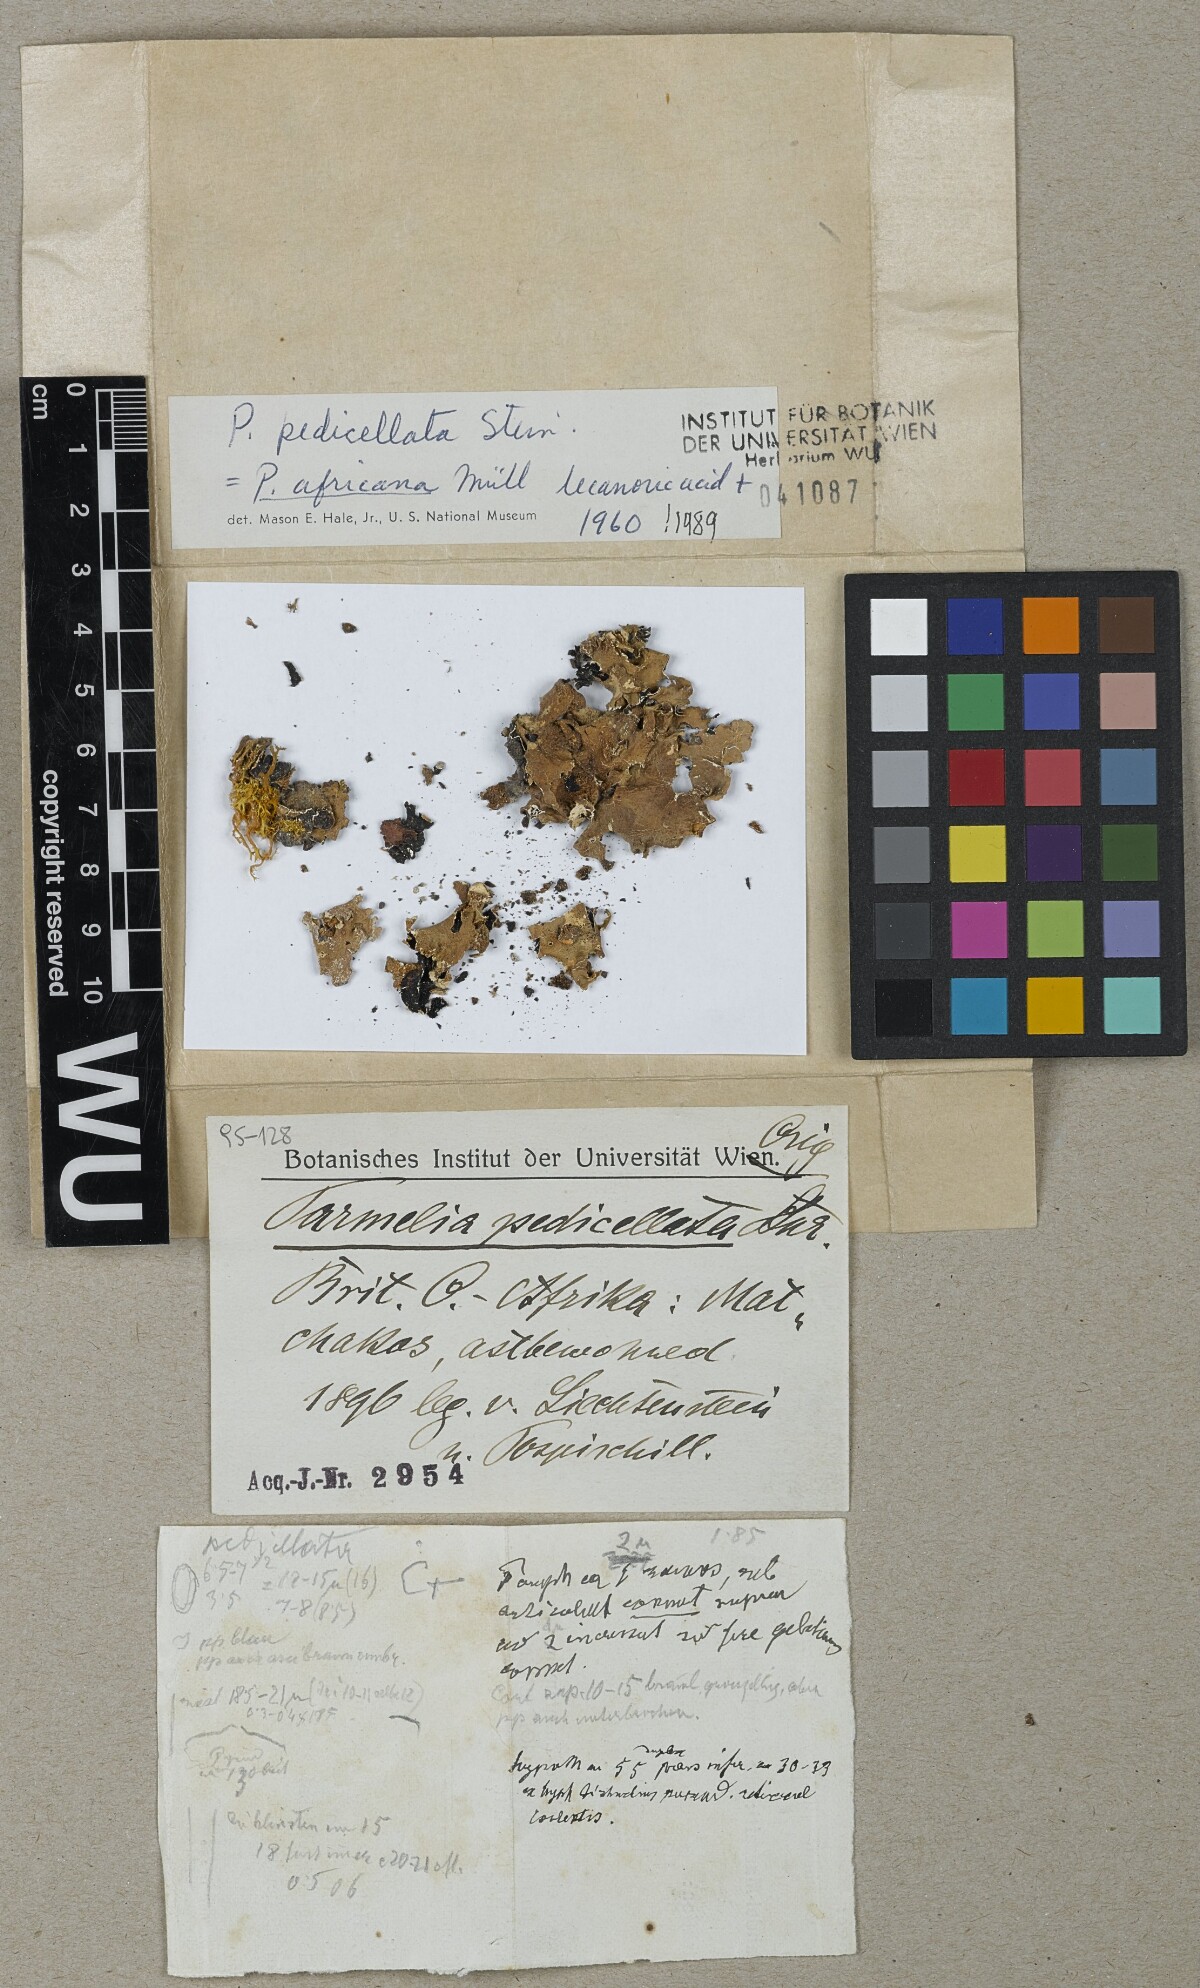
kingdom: Fungi
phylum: Ascomycota
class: Lecanoromycetes
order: Lecanorales
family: Parmeliaceae
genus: Parmelia
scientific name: Parmelia
